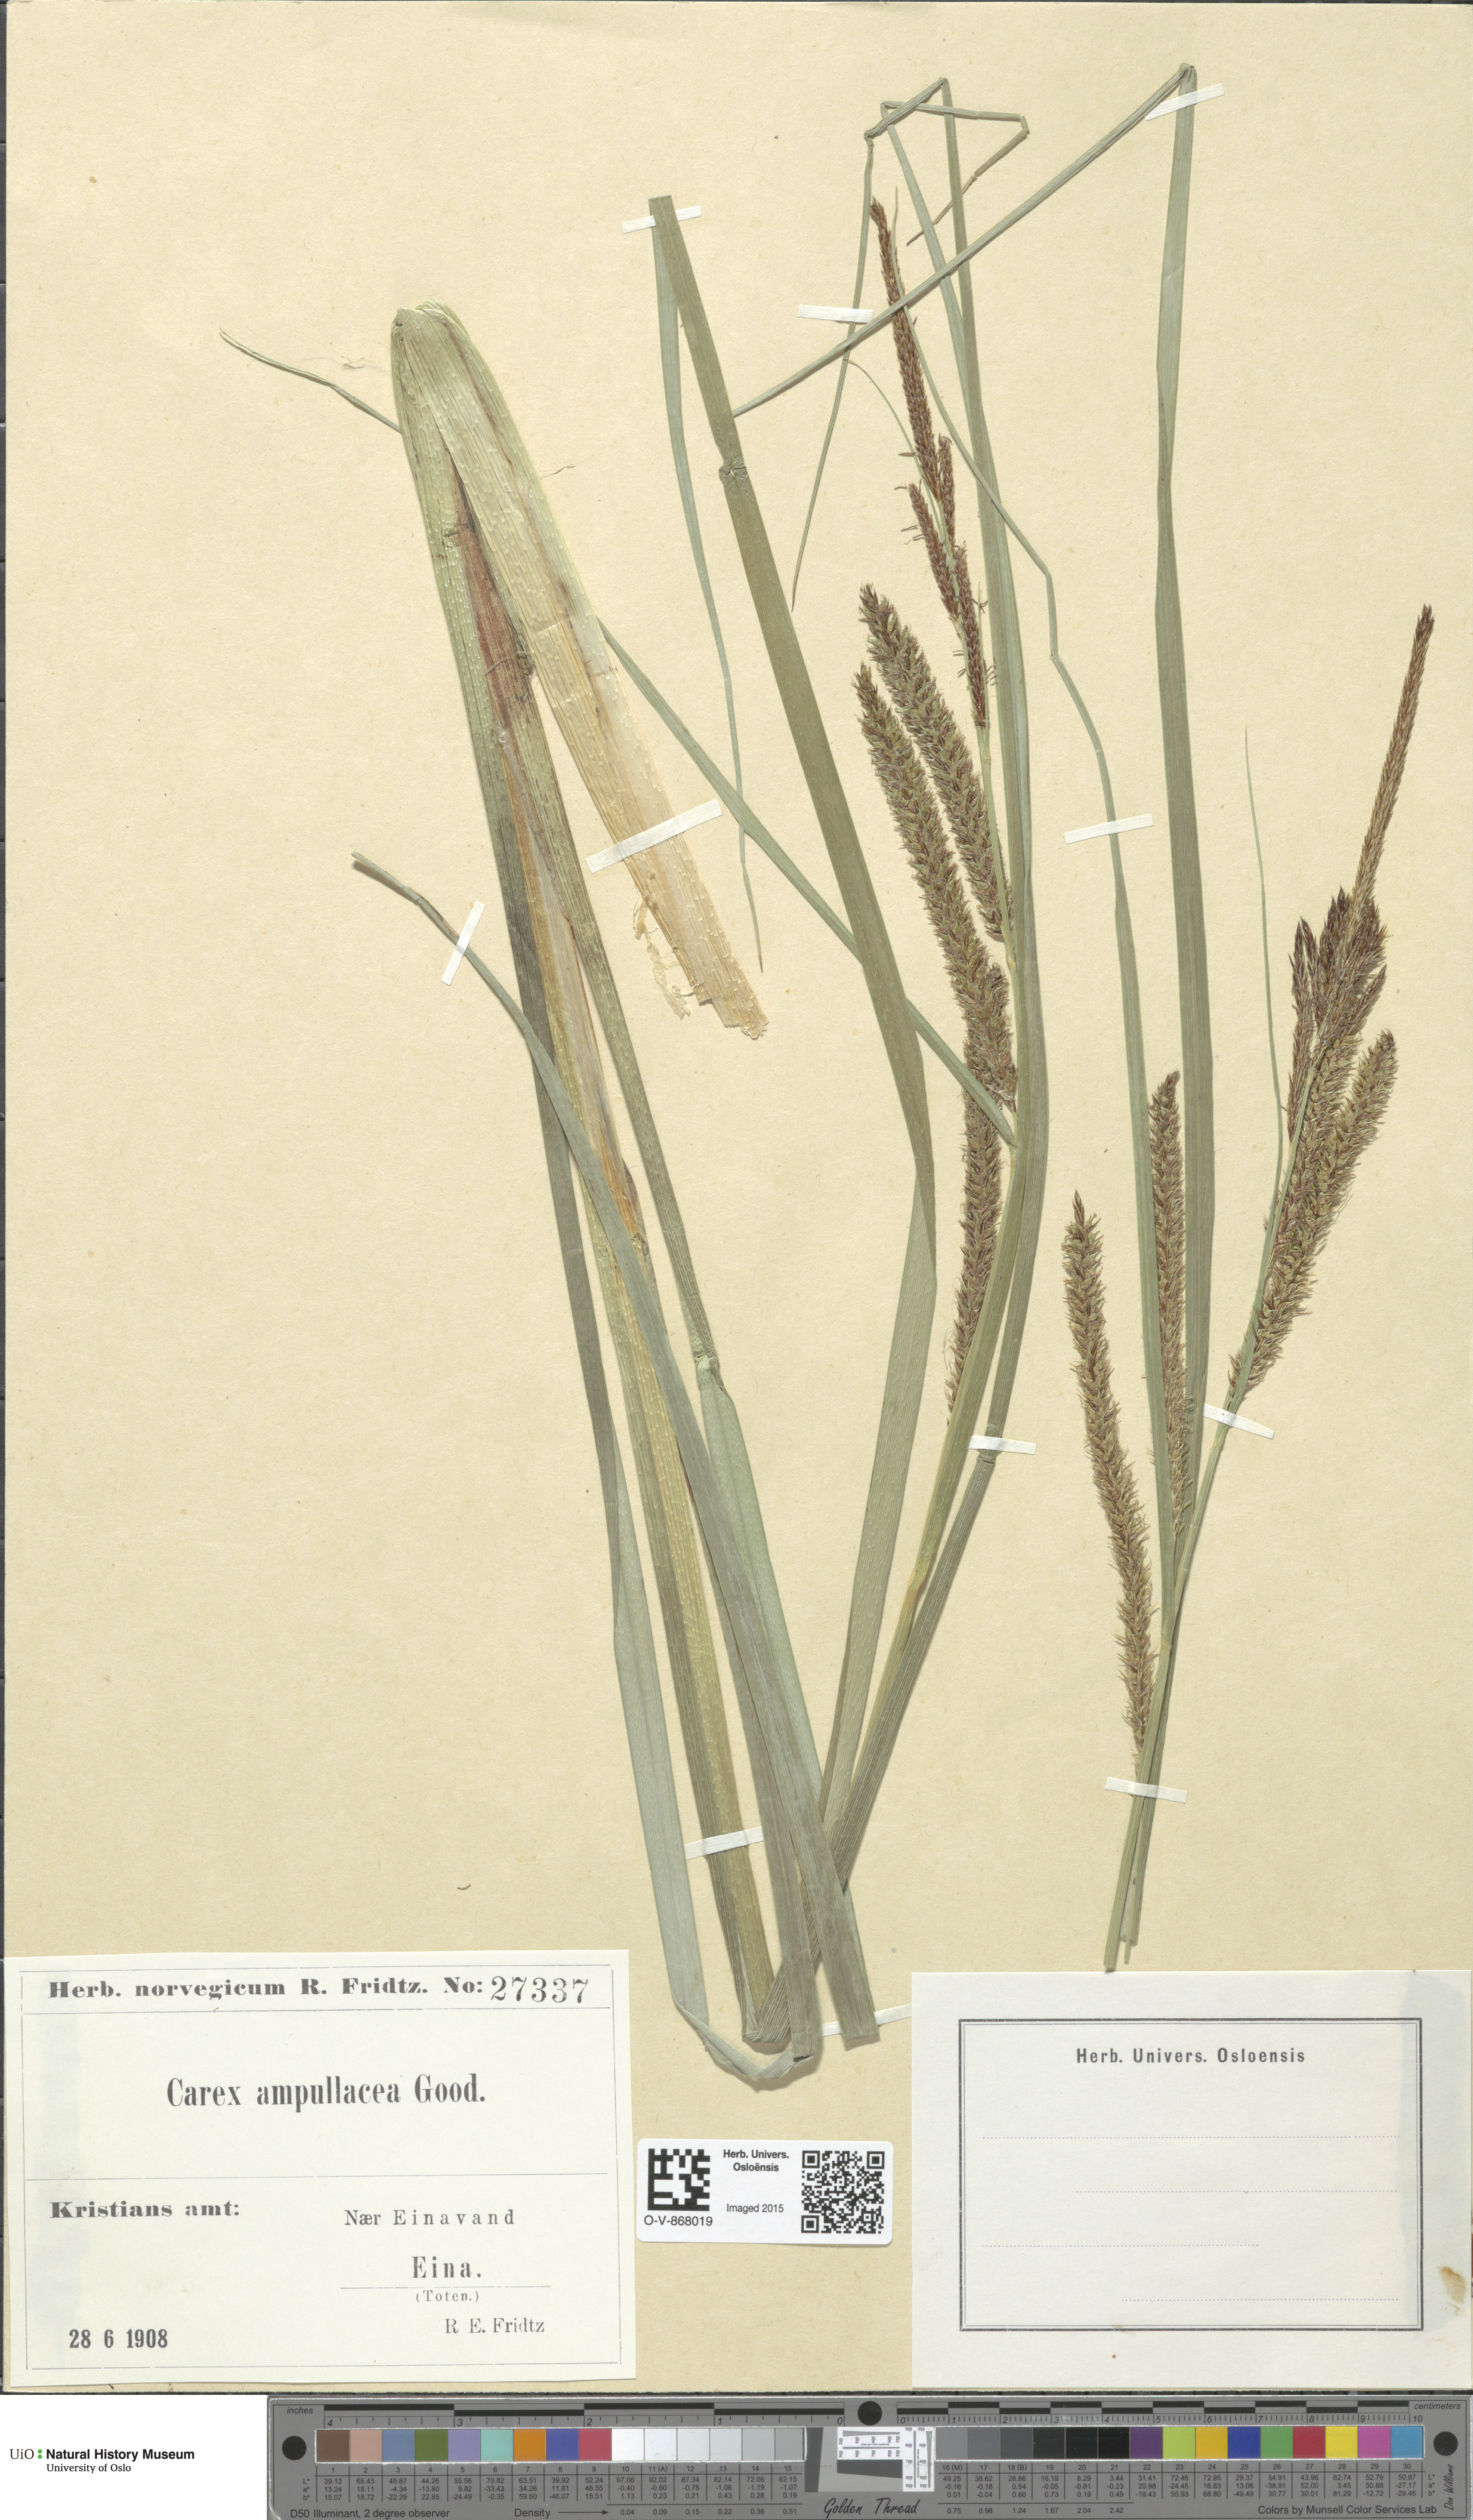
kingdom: Plantae
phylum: Tracheophyta
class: Liliopsida
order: Poales
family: Cyperaceae
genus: Carex
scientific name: Carex rostrata
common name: Bottle sedge
